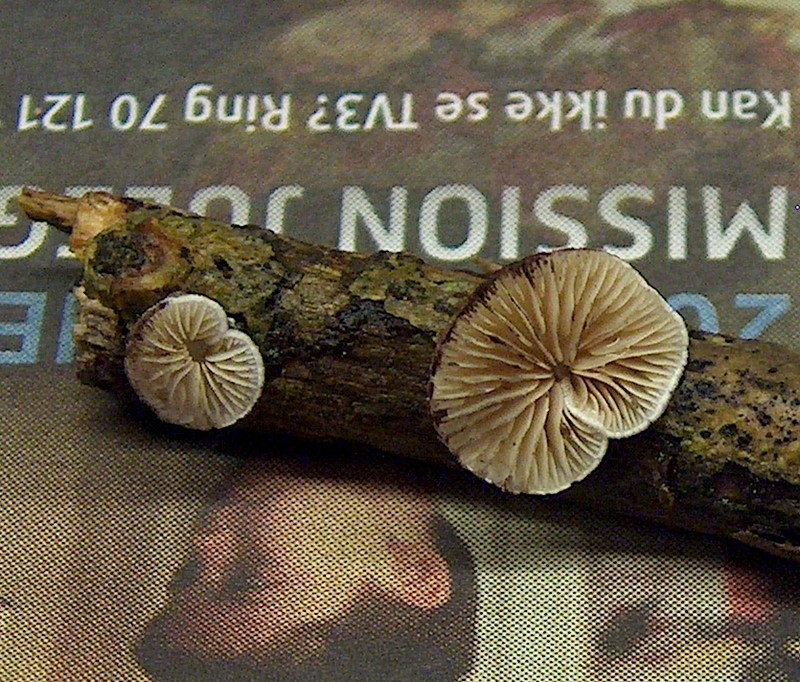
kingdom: Fungi
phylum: Basidiomycota
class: Agaricomycetes
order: Agaricales
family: Crepidotaceae
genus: Crepidotus
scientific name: Crepidotus cesatii
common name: almindelig muslingesvamp
